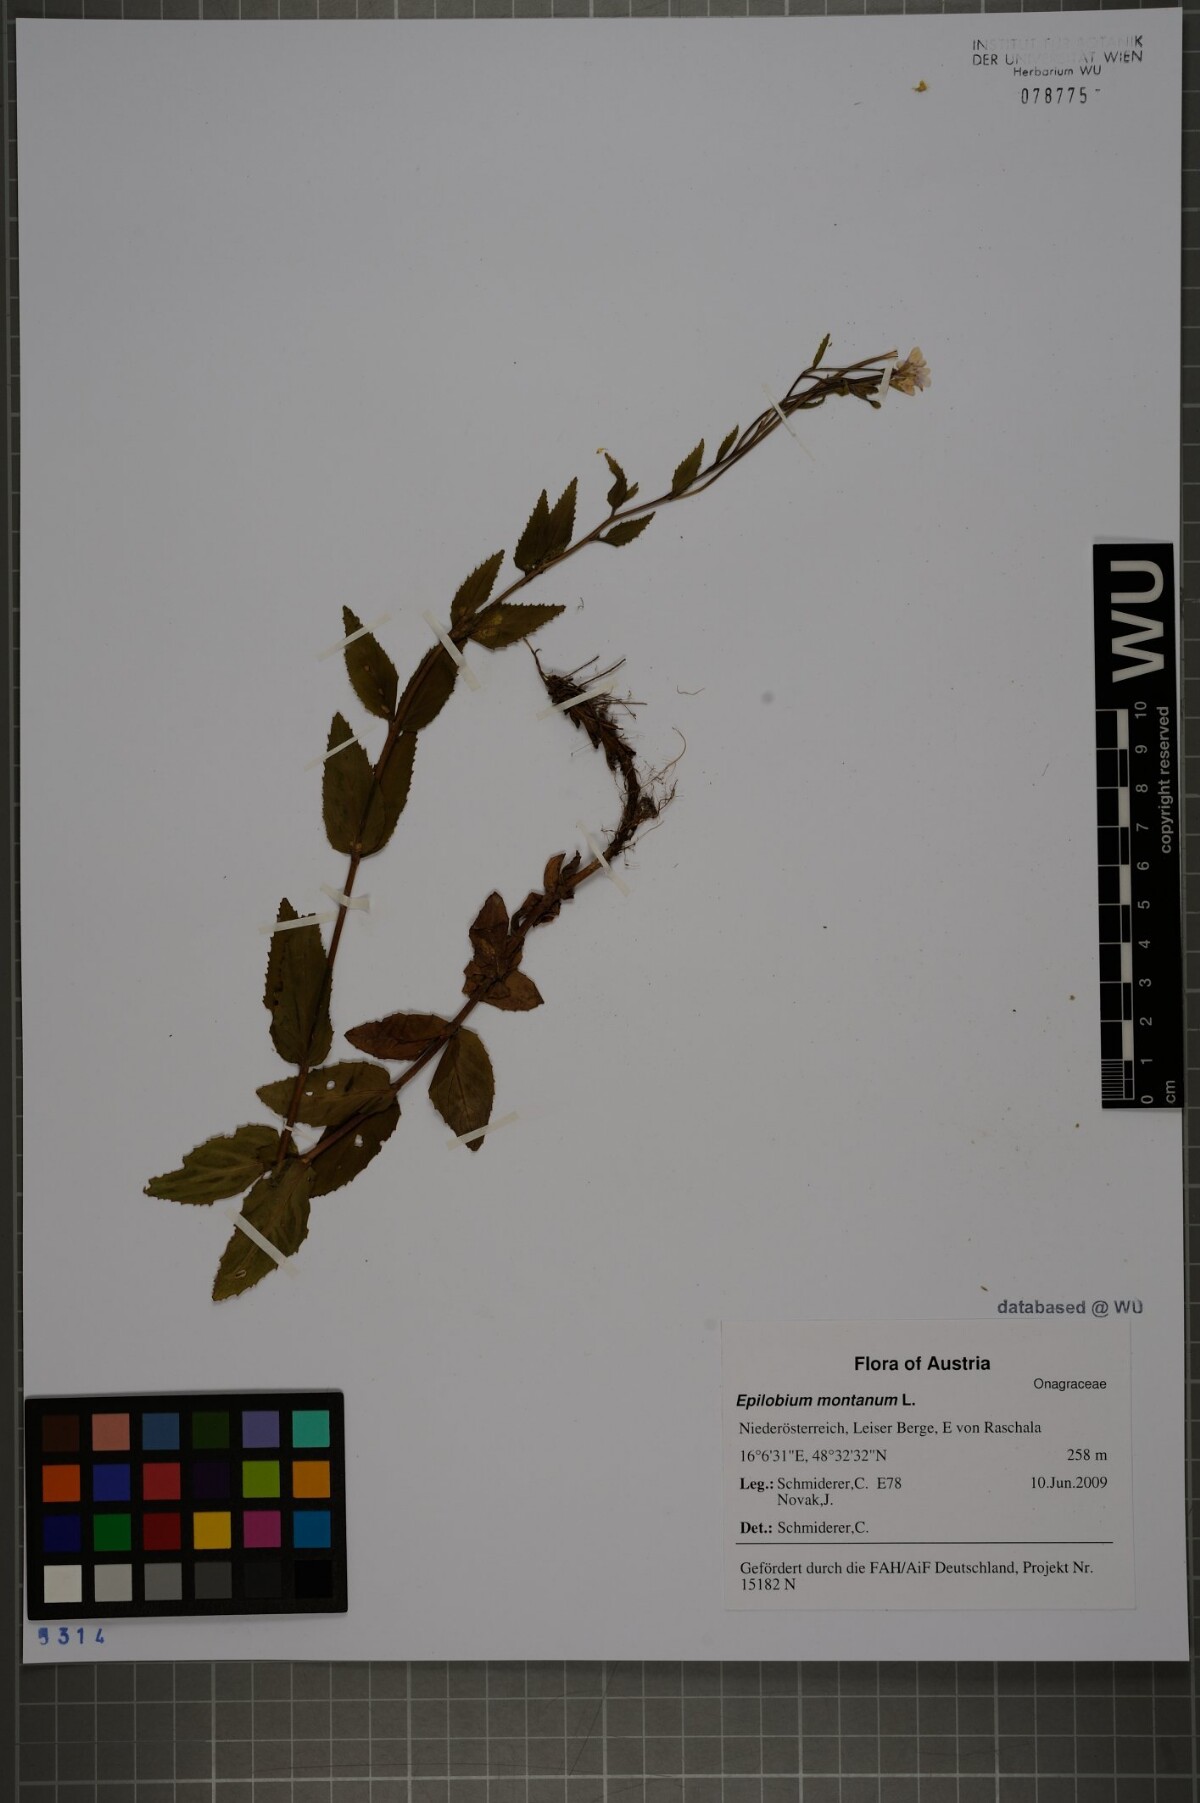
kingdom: Plantae
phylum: Tracheophyta
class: Magnoliopsida
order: Myrtales
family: Onagraceae
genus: Epilobium
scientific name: Epilobium montanum
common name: Broad-leaved willowherb
